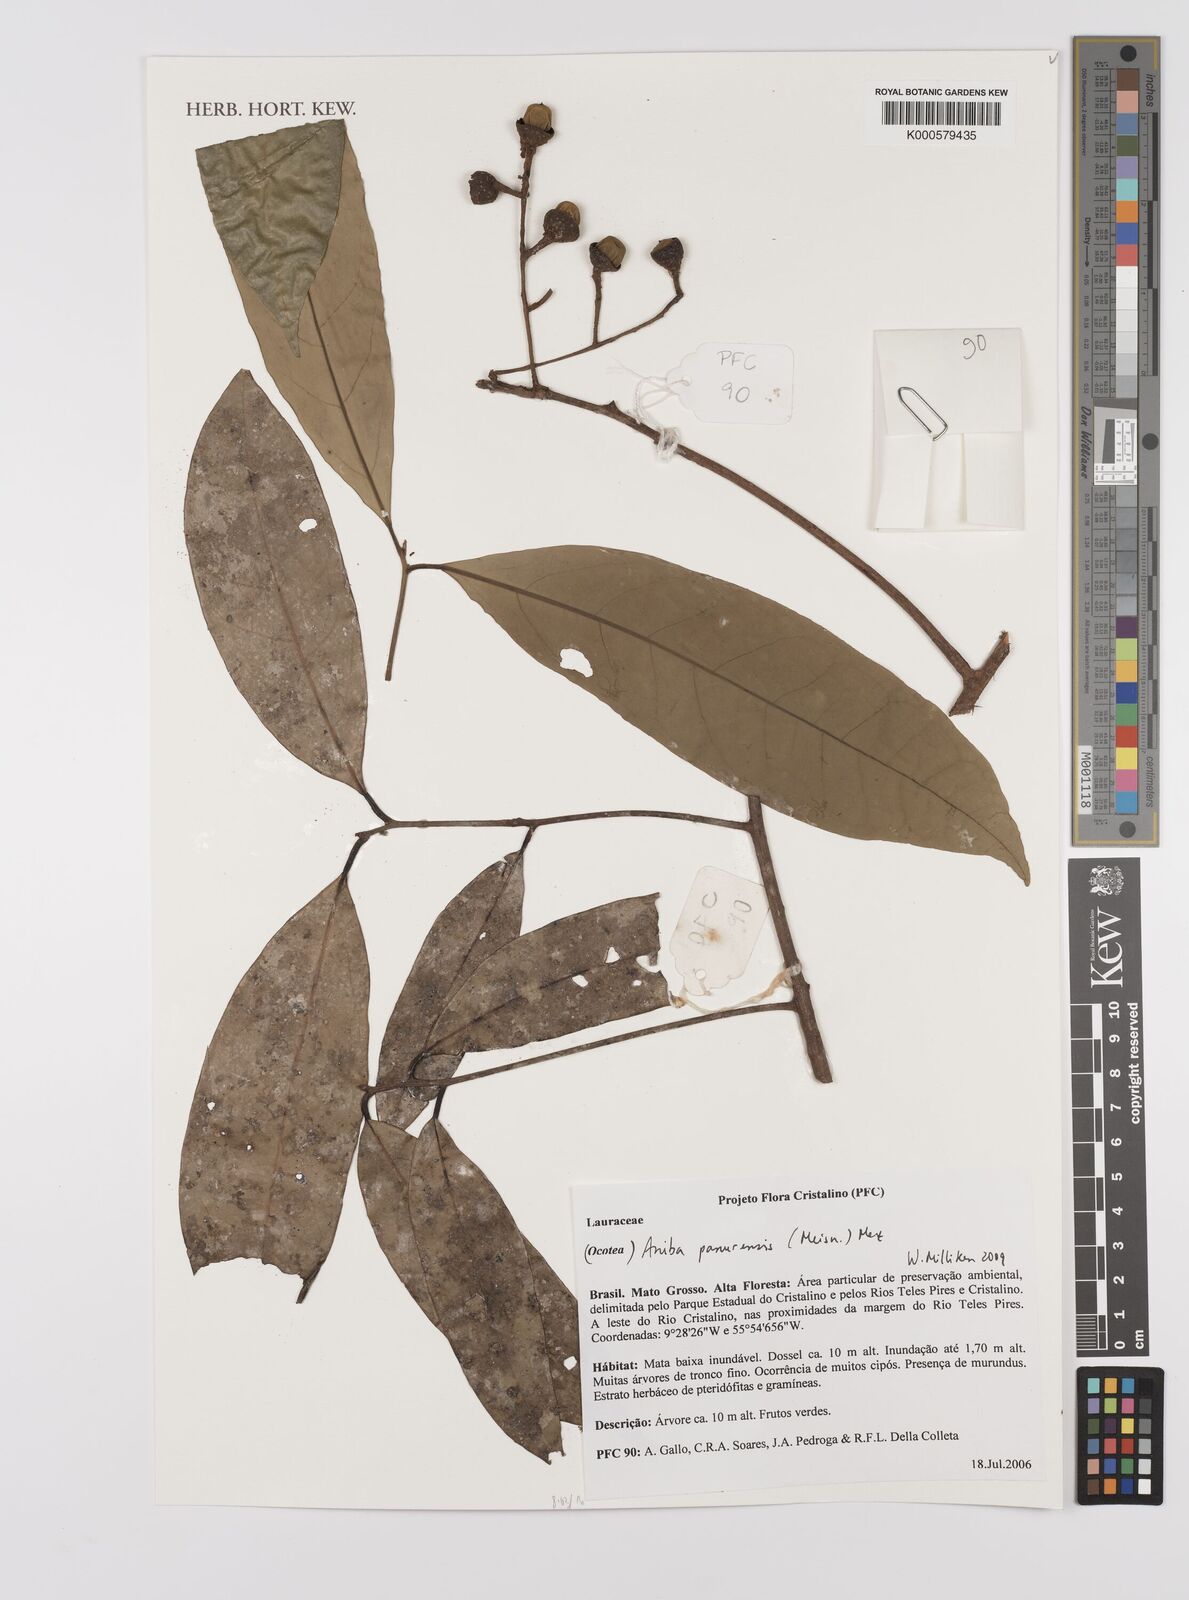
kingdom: Plantae
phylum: Tracheophyta
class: Magnoliopsida
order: Laurales
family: Lauraceae
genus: Aniba
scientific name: Aniba panurensis
